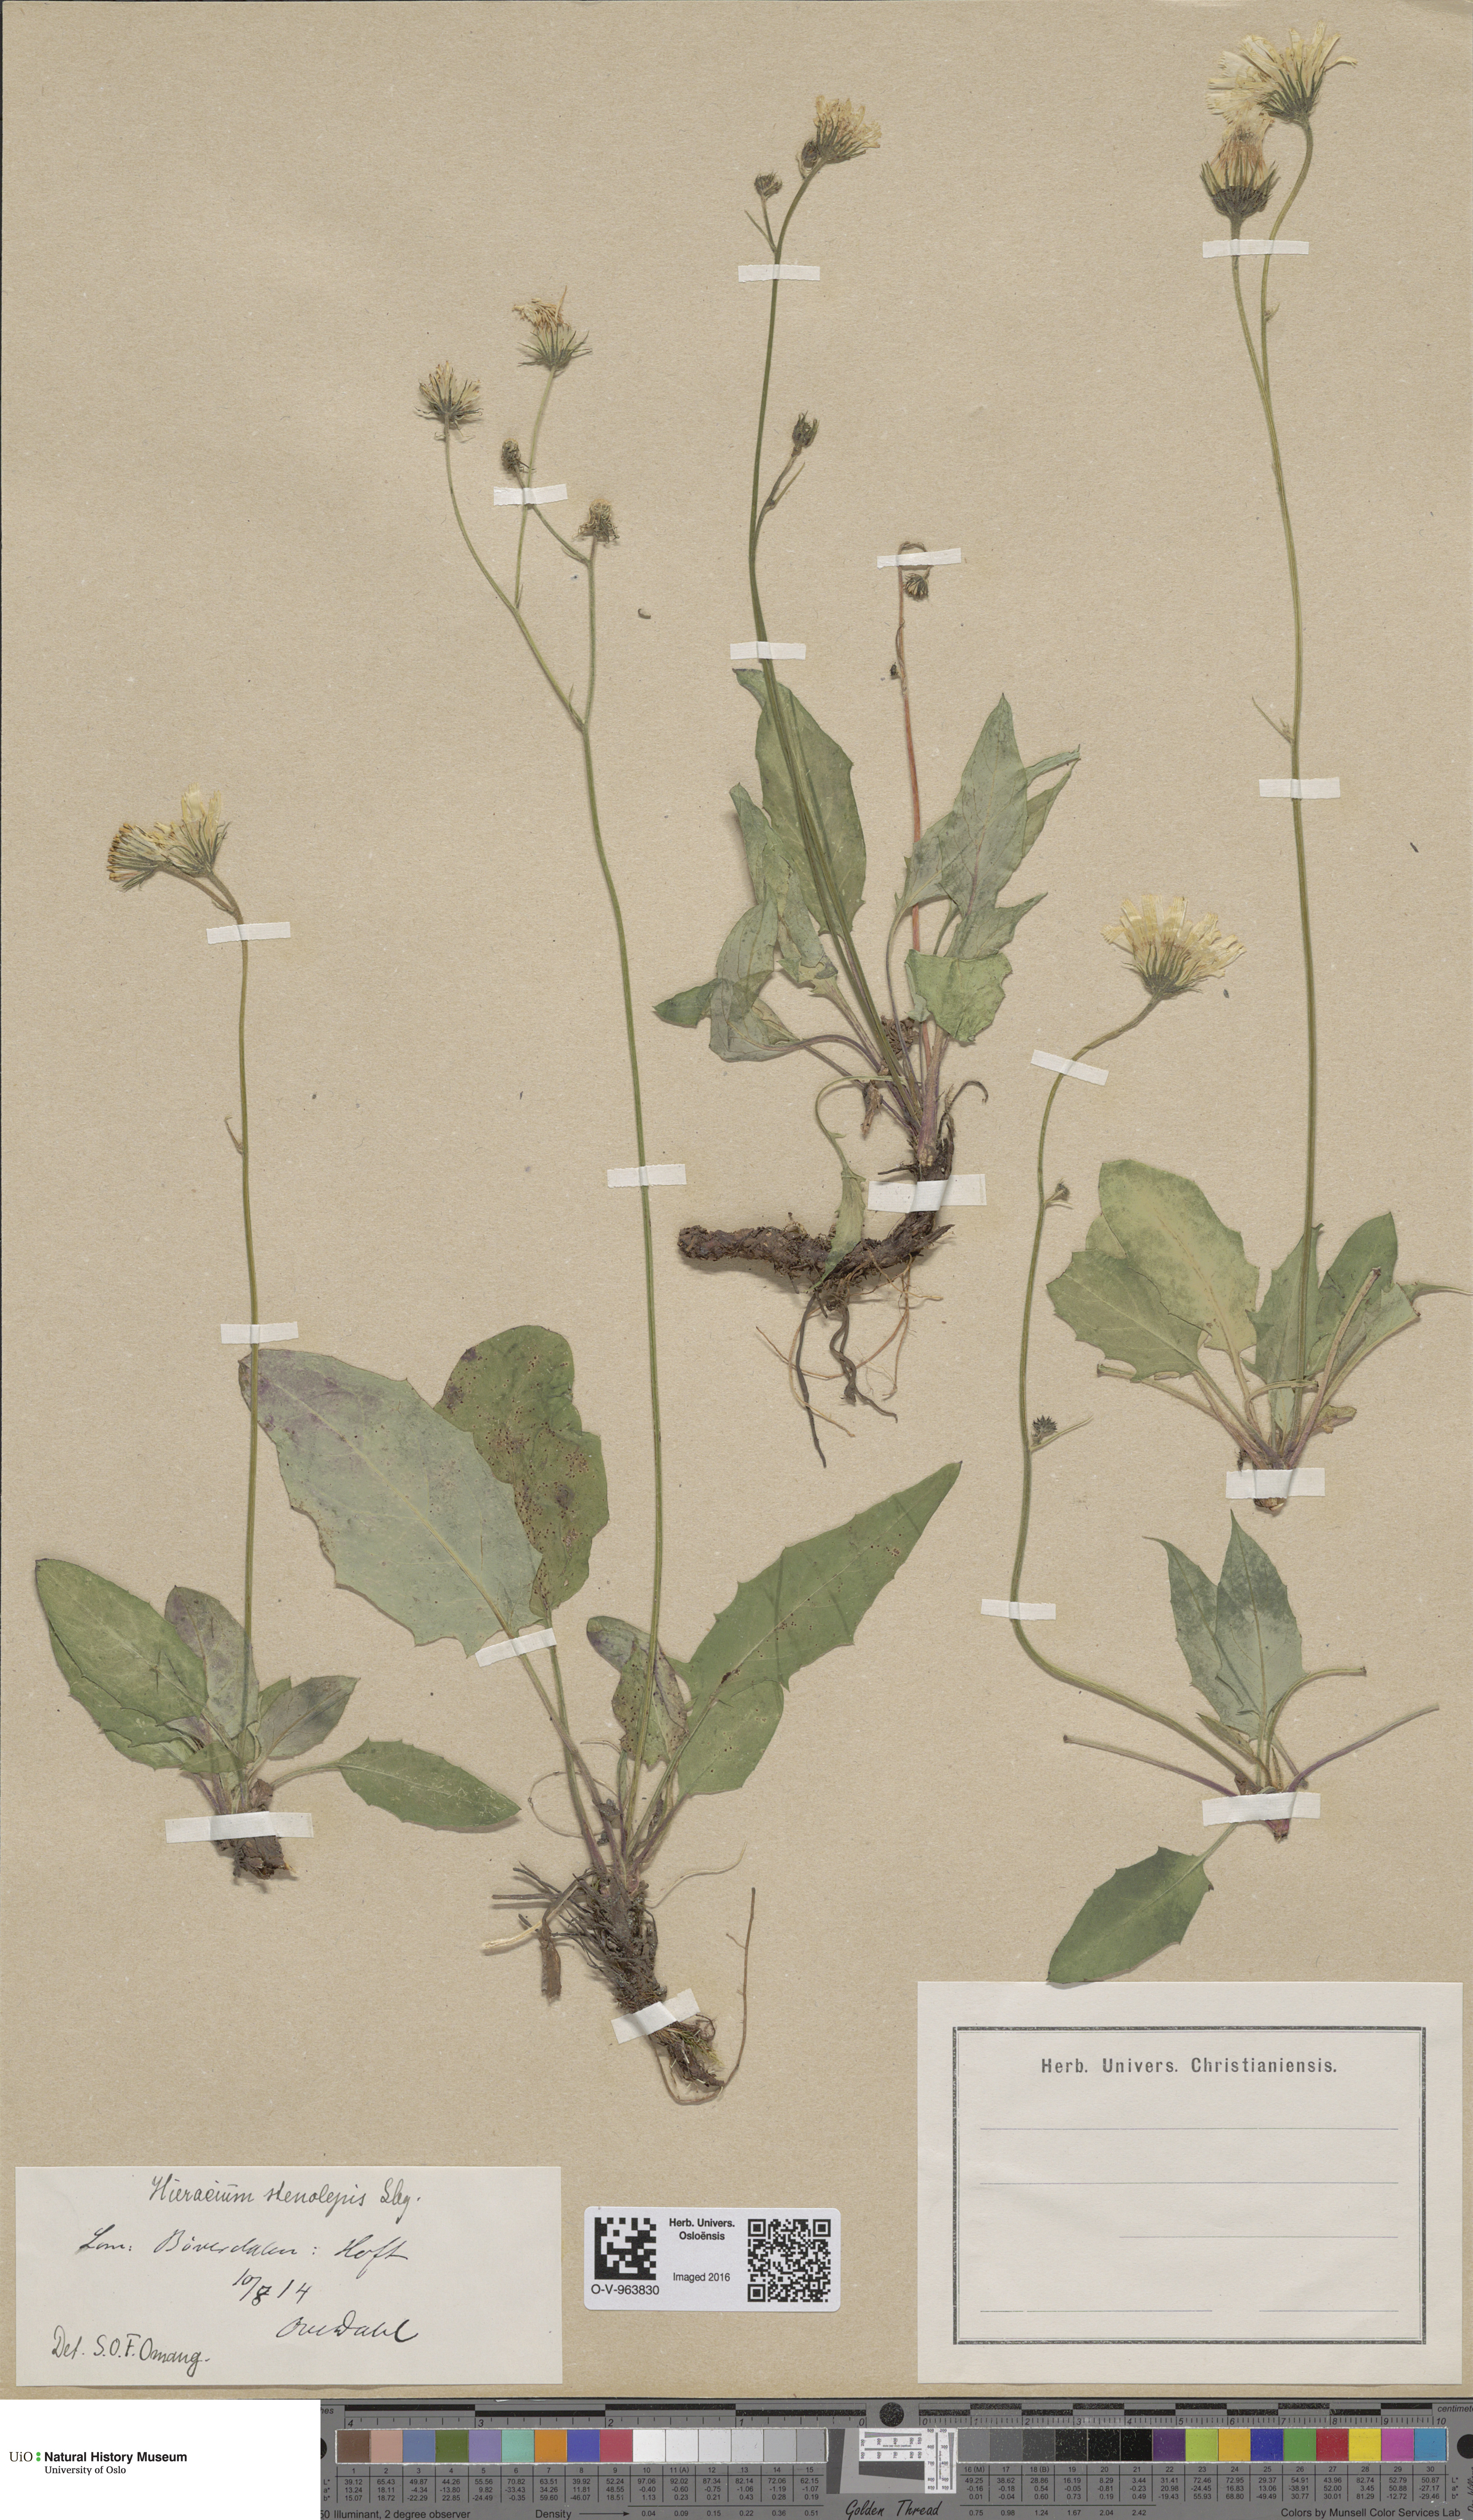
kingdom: Plantae
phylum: Tracheophyta
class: Magnoliopsida
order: Asterales
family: Asteraceae
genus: Hieracium
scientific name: Hieracium bifidum
